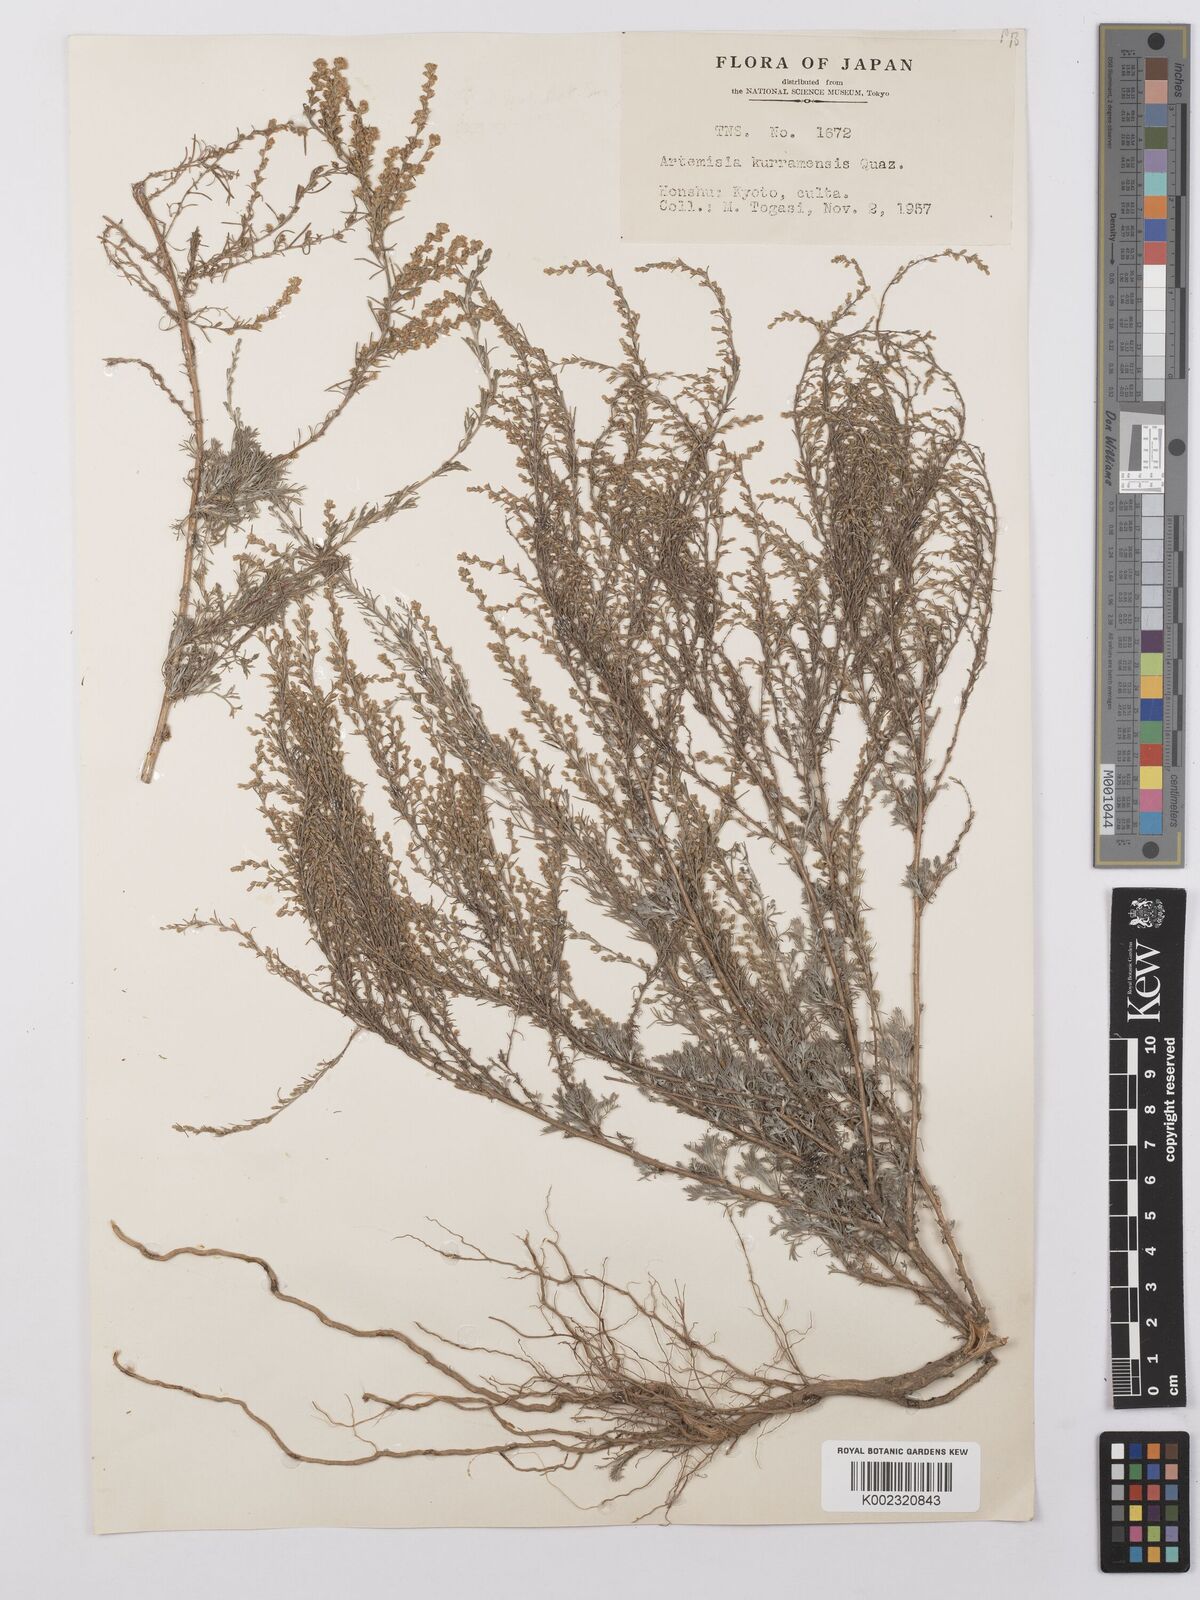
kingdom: Plantae
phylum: Tracheophyta
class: Magnoliopsida
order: Asterales
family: Asteraceae
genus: Artemisia
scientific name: Artemisia kurramensis
